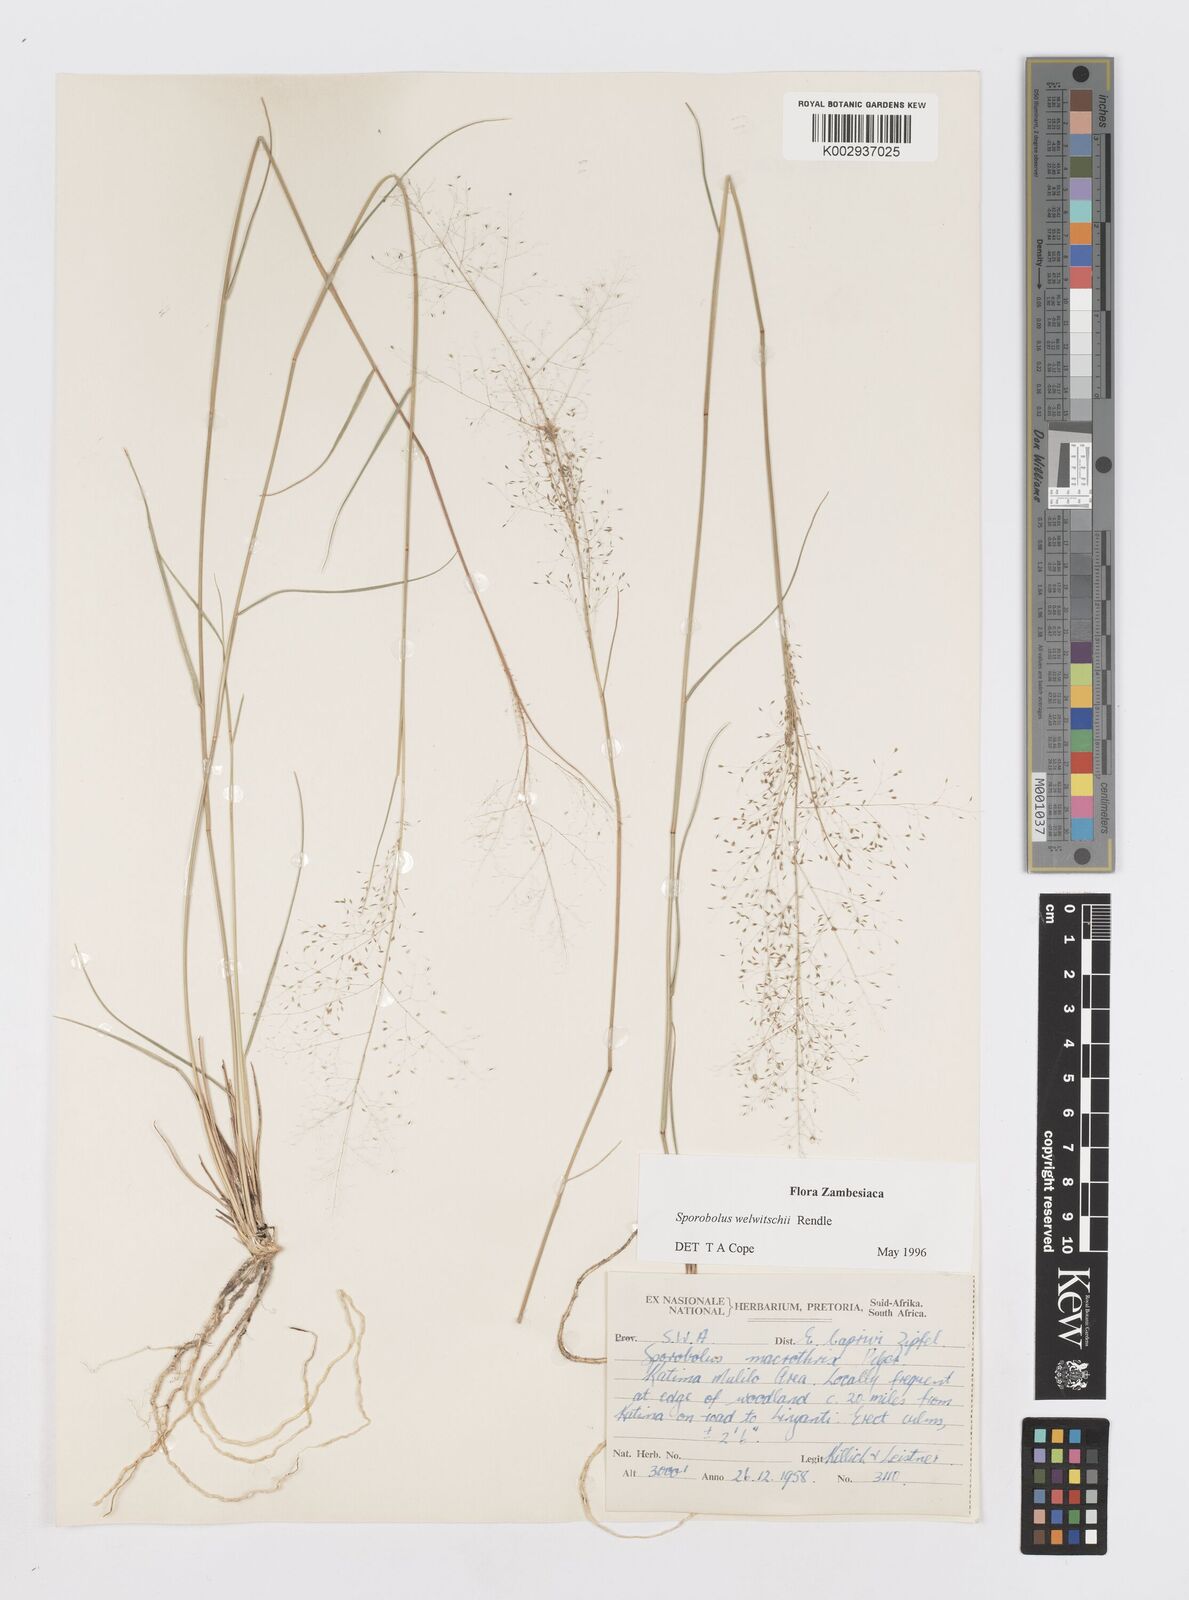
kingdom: Plantae
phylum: Tracheophyta
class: Liliopsida
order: Poales
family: Poaceae
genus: Sporobolus
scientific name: Sporobolus welwitschii
